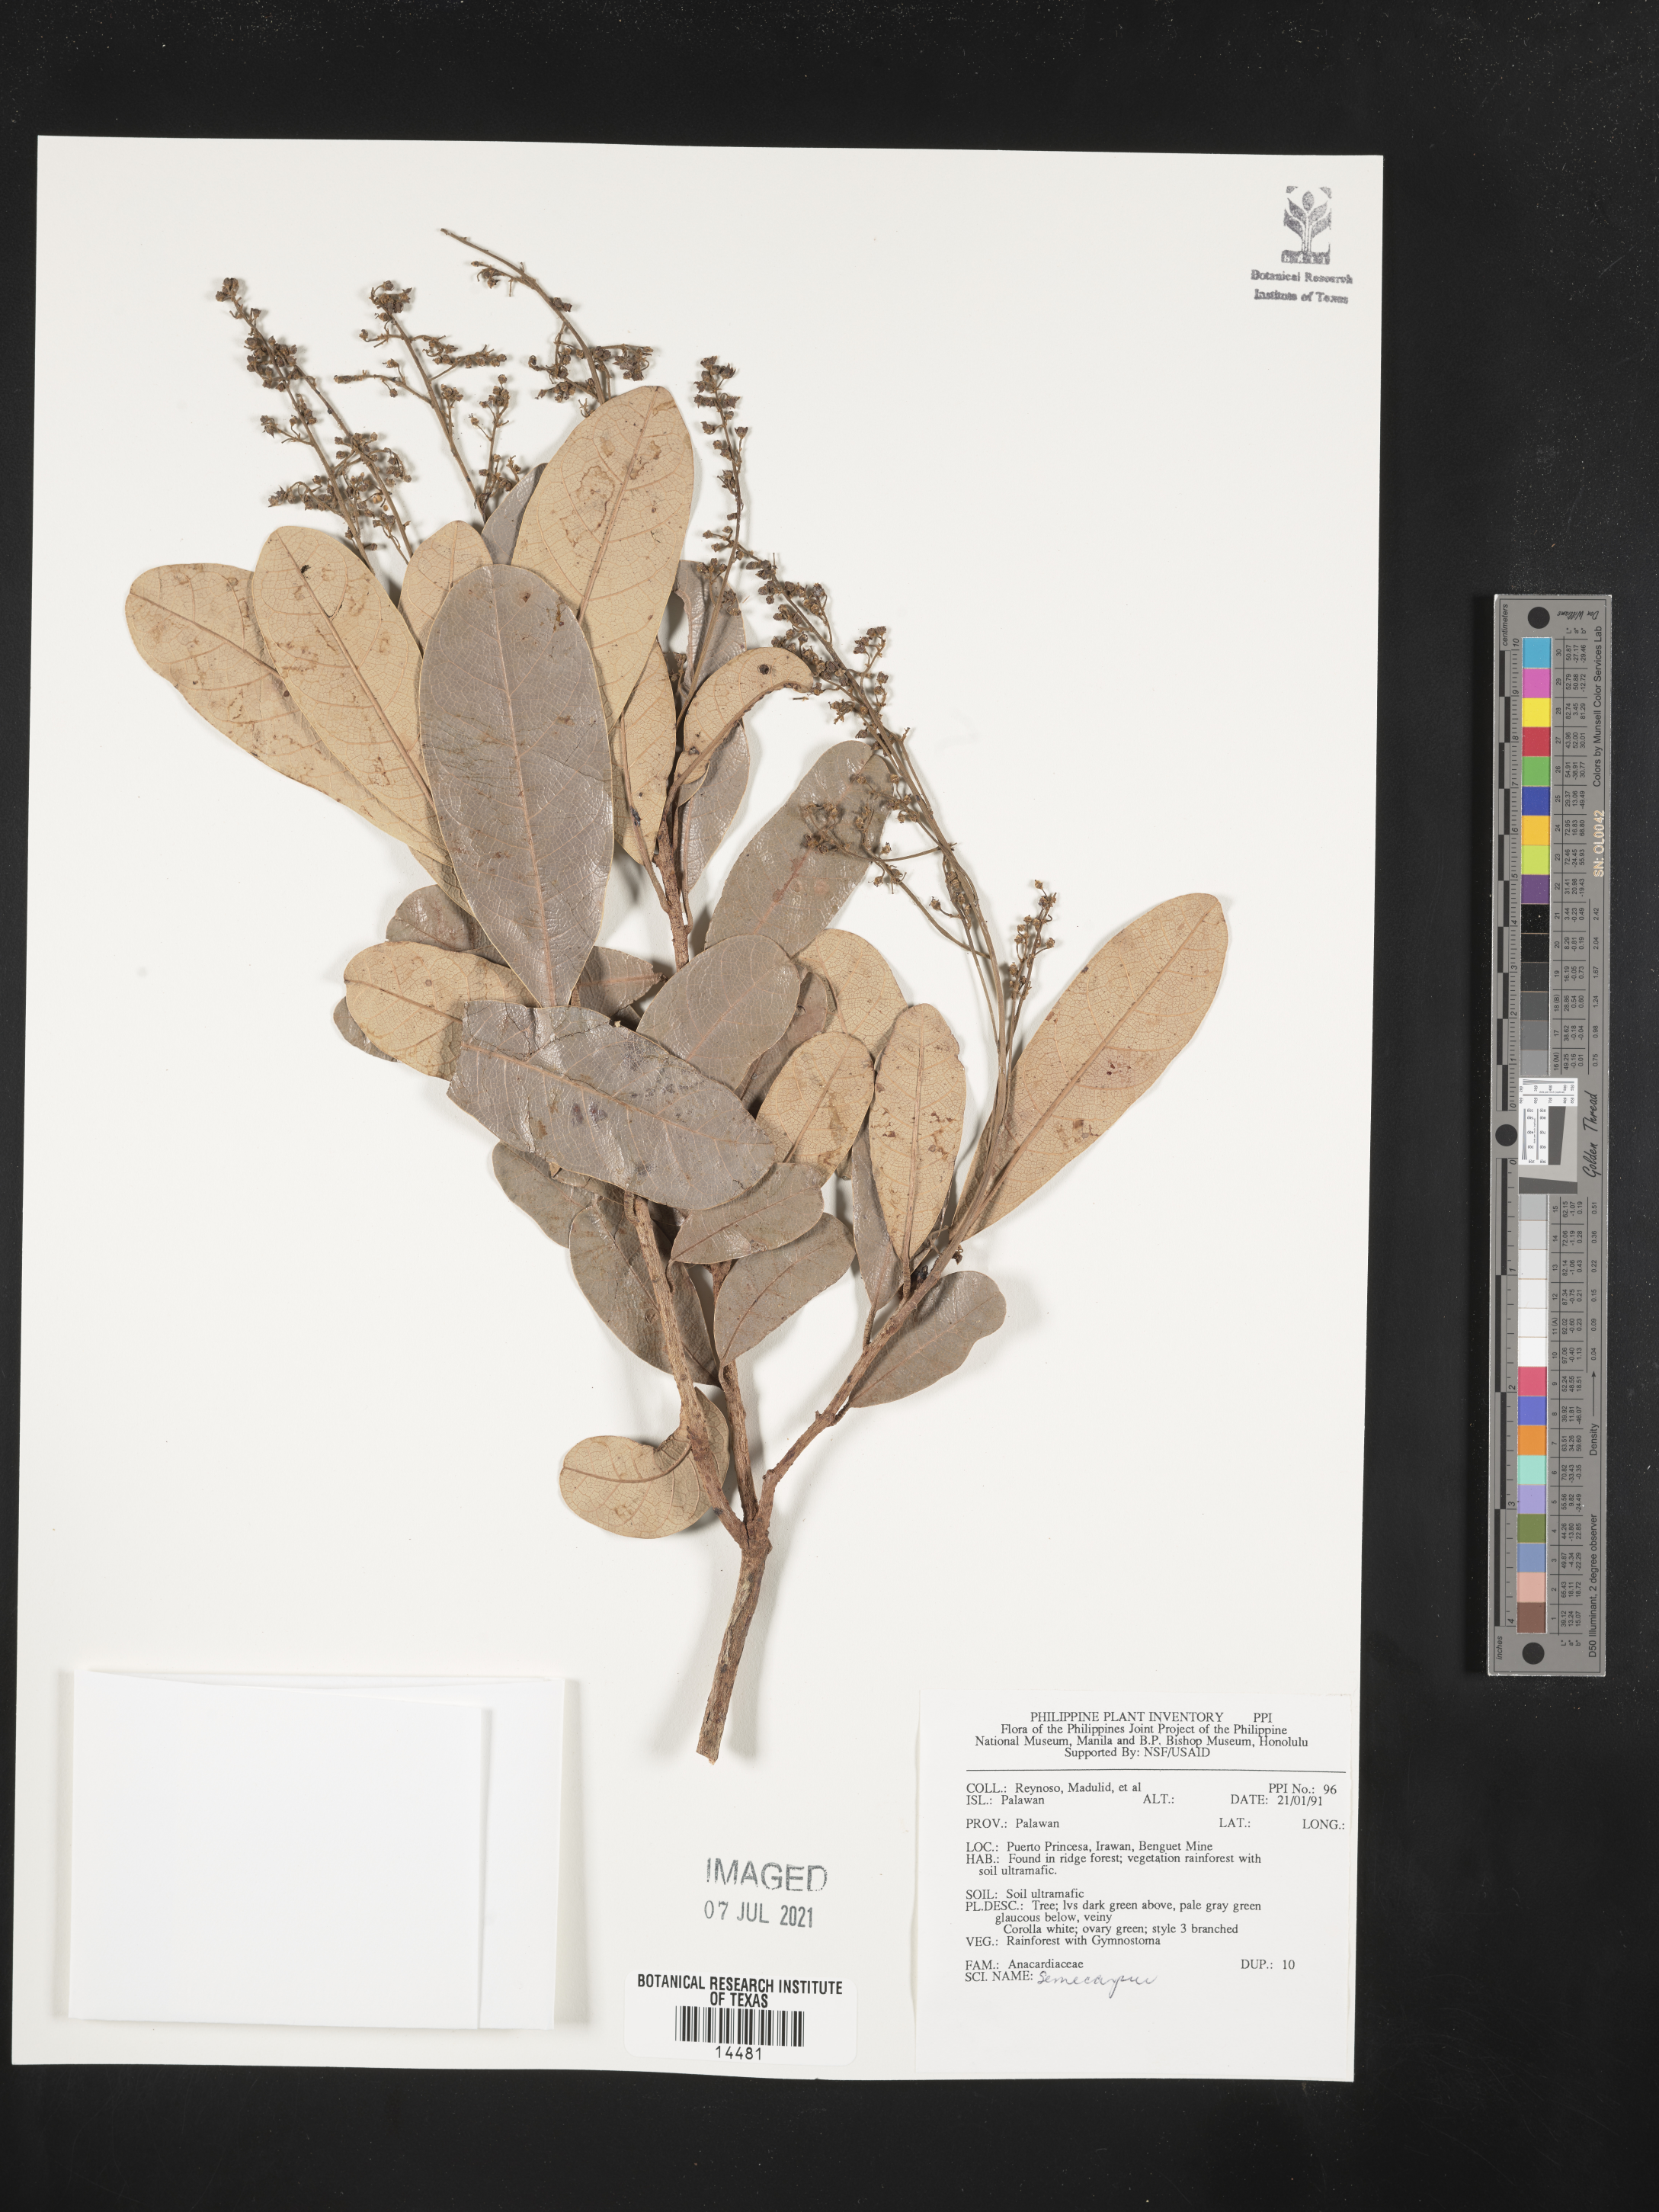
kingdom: Plantae
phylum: Tracheophyta
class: Magnoliopsida
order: Sapindales
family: Anacardiaceae
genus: Semecarpus
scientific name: Semecarpus
